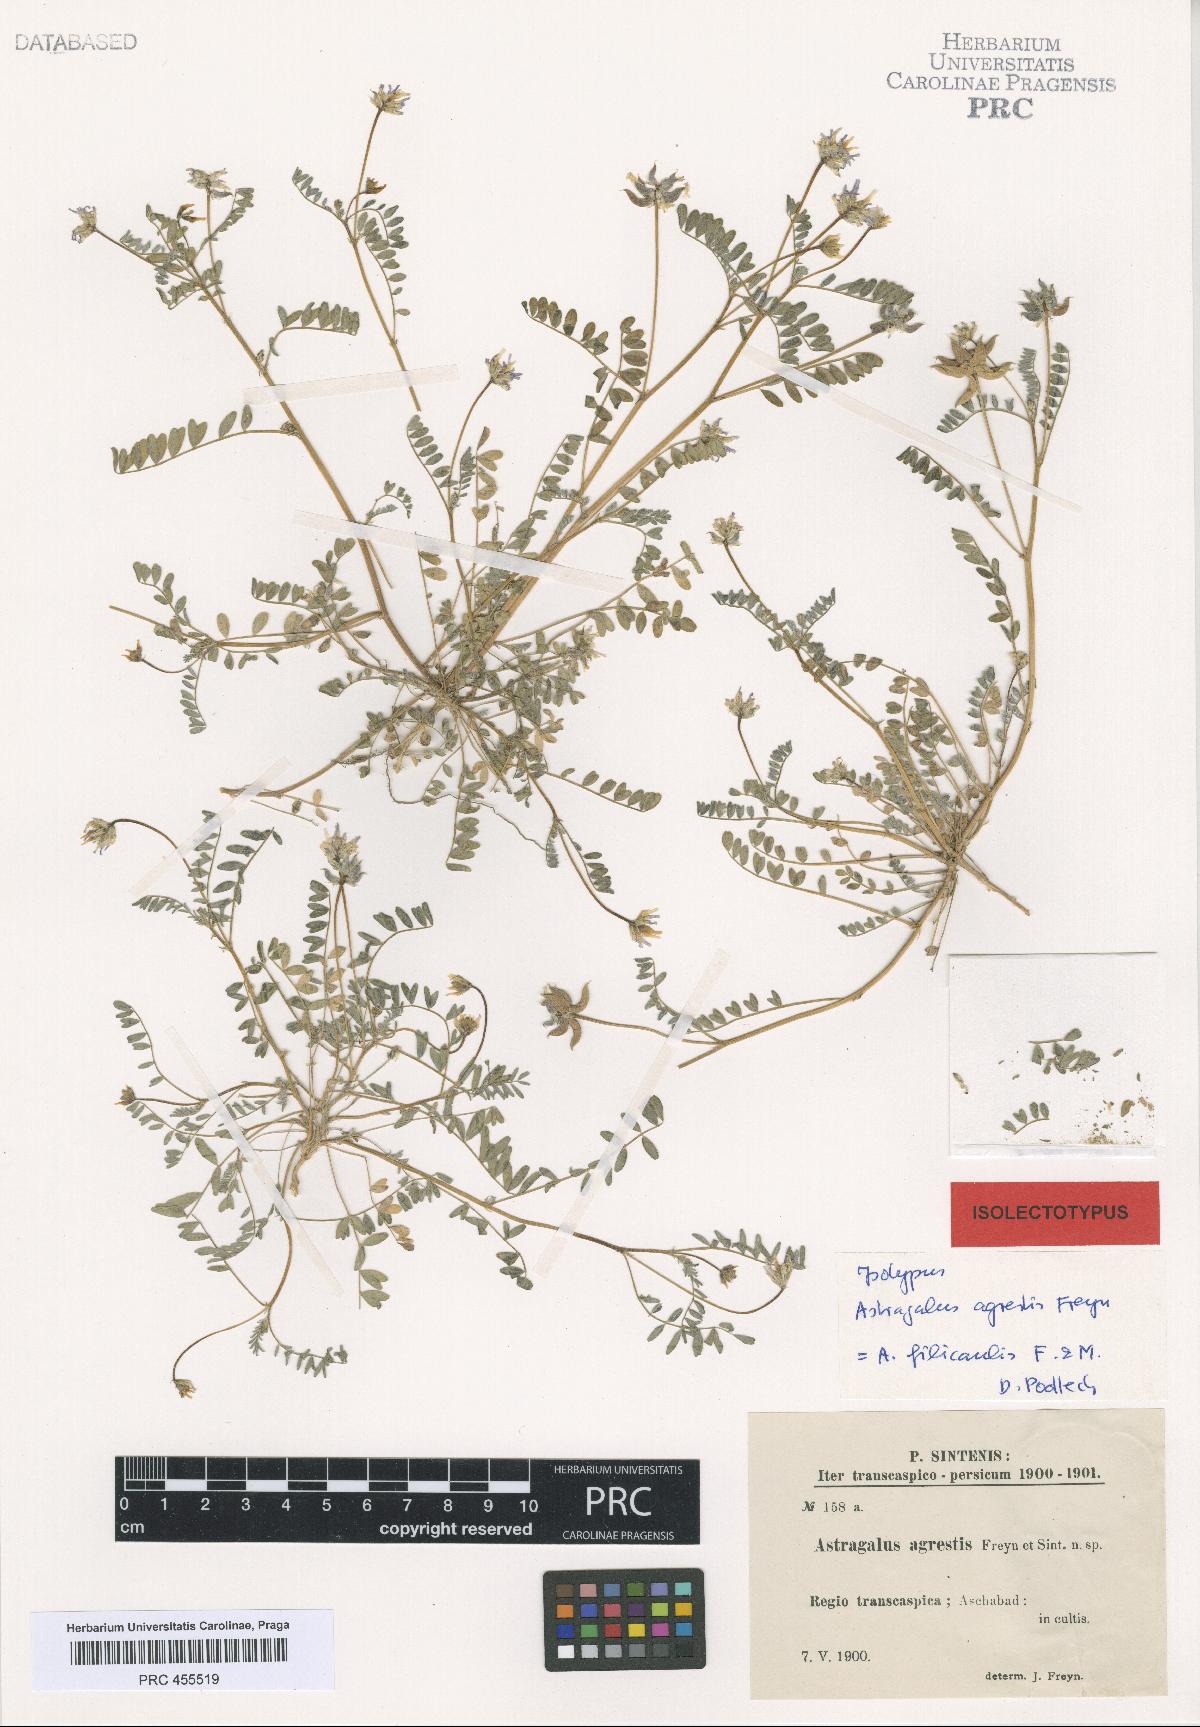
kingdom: Plantae
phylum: Tracheophyta
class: Magnoliopsida
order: Fabales
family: Fabaceae
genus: Astragalus
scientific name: Astragalus filicaulis
